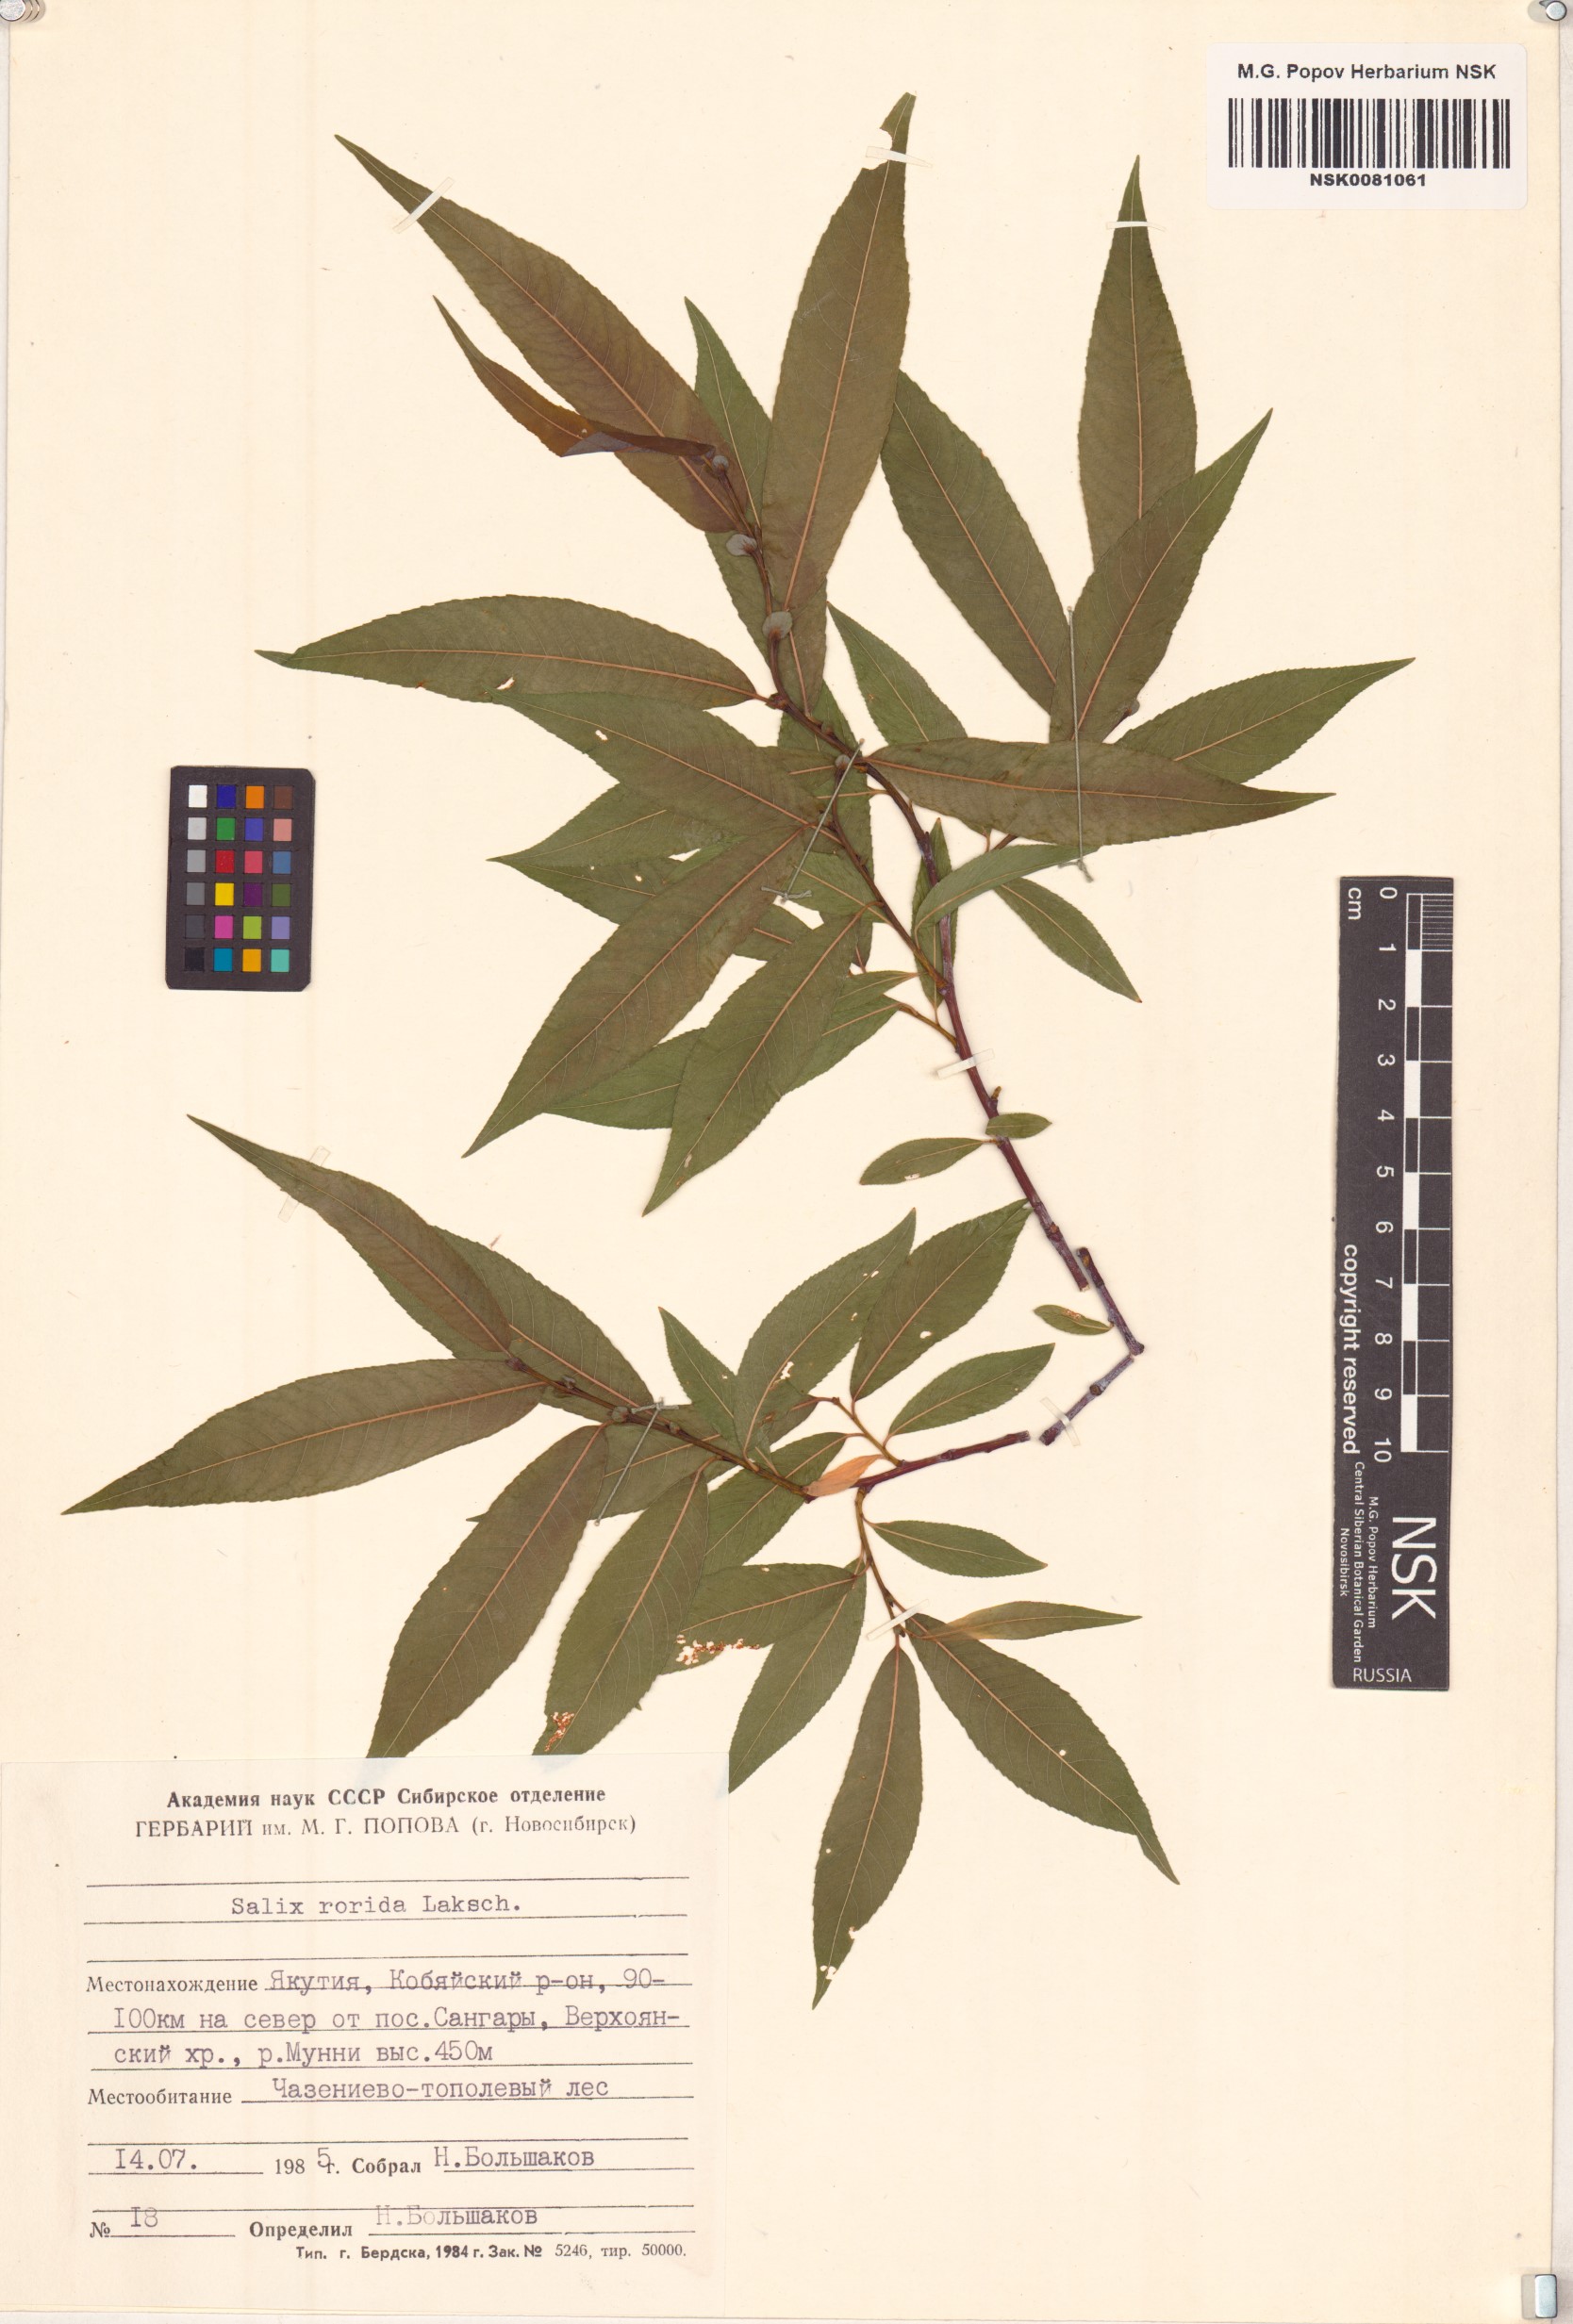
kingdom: Plantae
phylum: Tracheophyta
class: Magnoliopsida
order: Malpighiales
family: Salicaceae
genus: Salix
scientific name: Salix rorida
